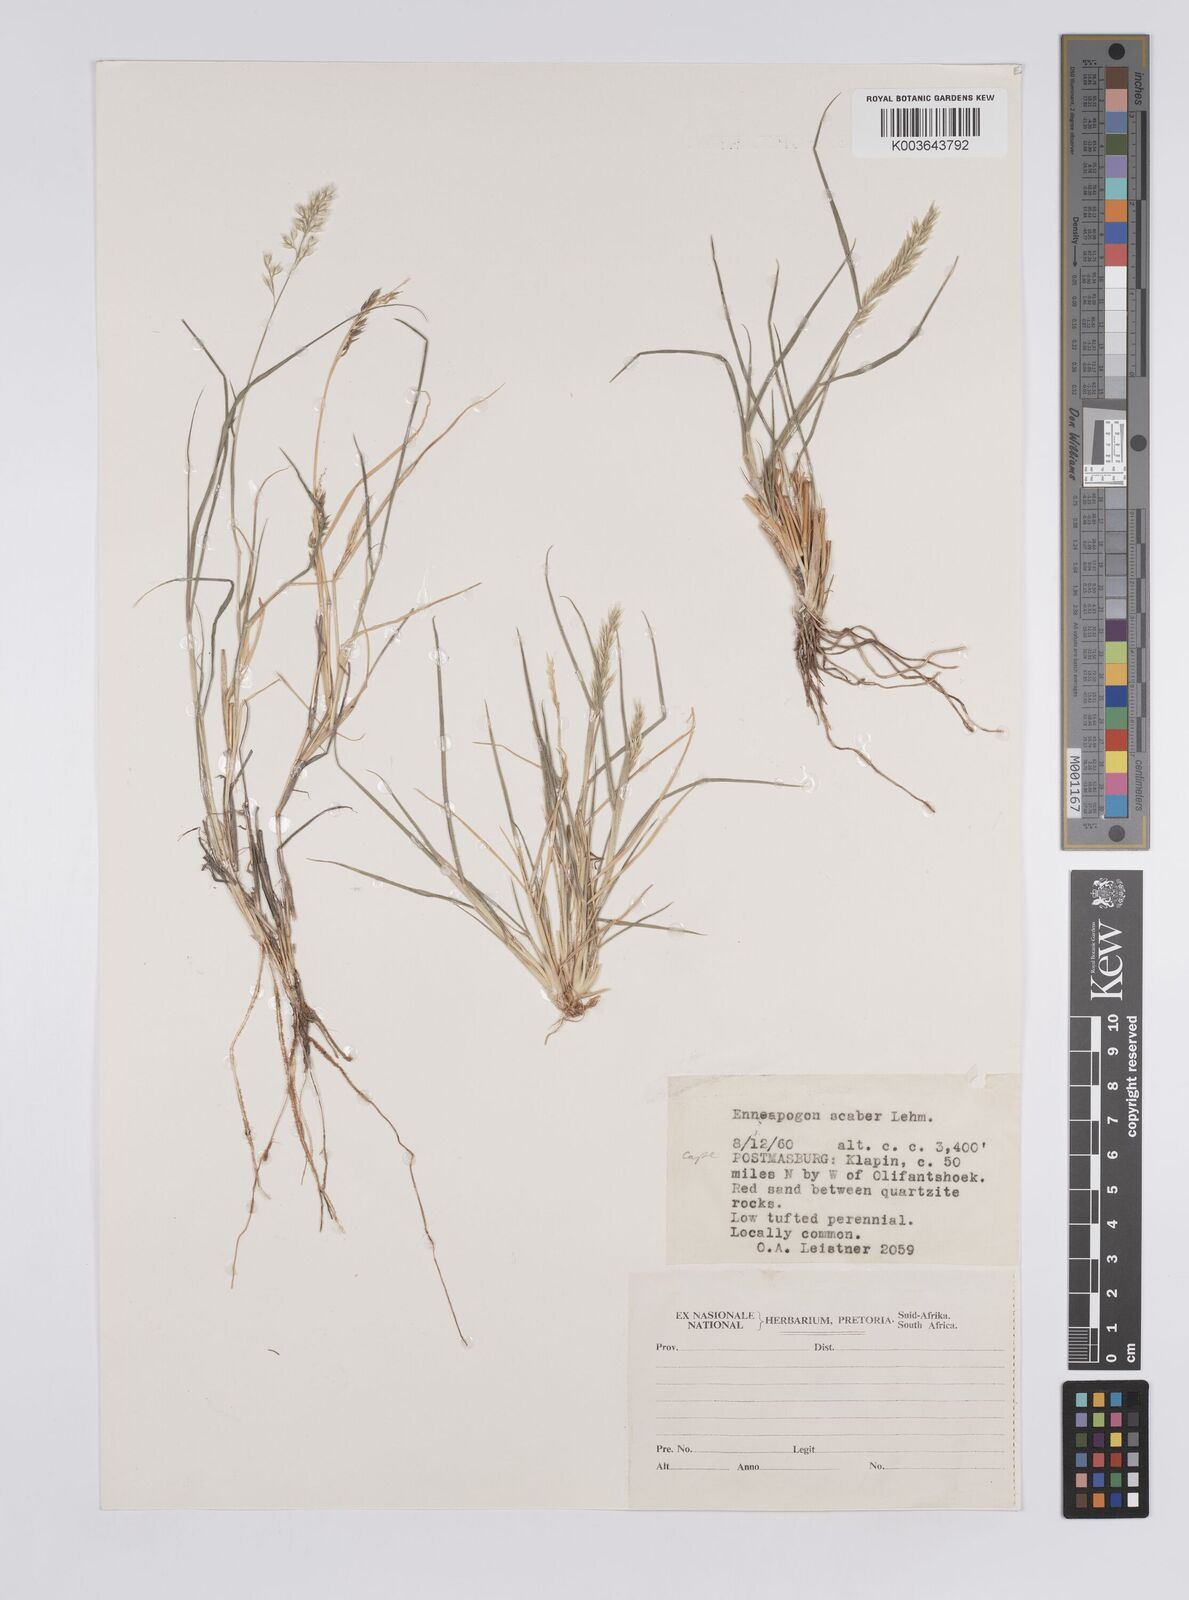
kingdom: Plantae
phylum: Tracheophyta
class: Liliopsida
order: Poales
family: Poaceae
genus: Enneapogon
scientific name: Enneapogon scaber
